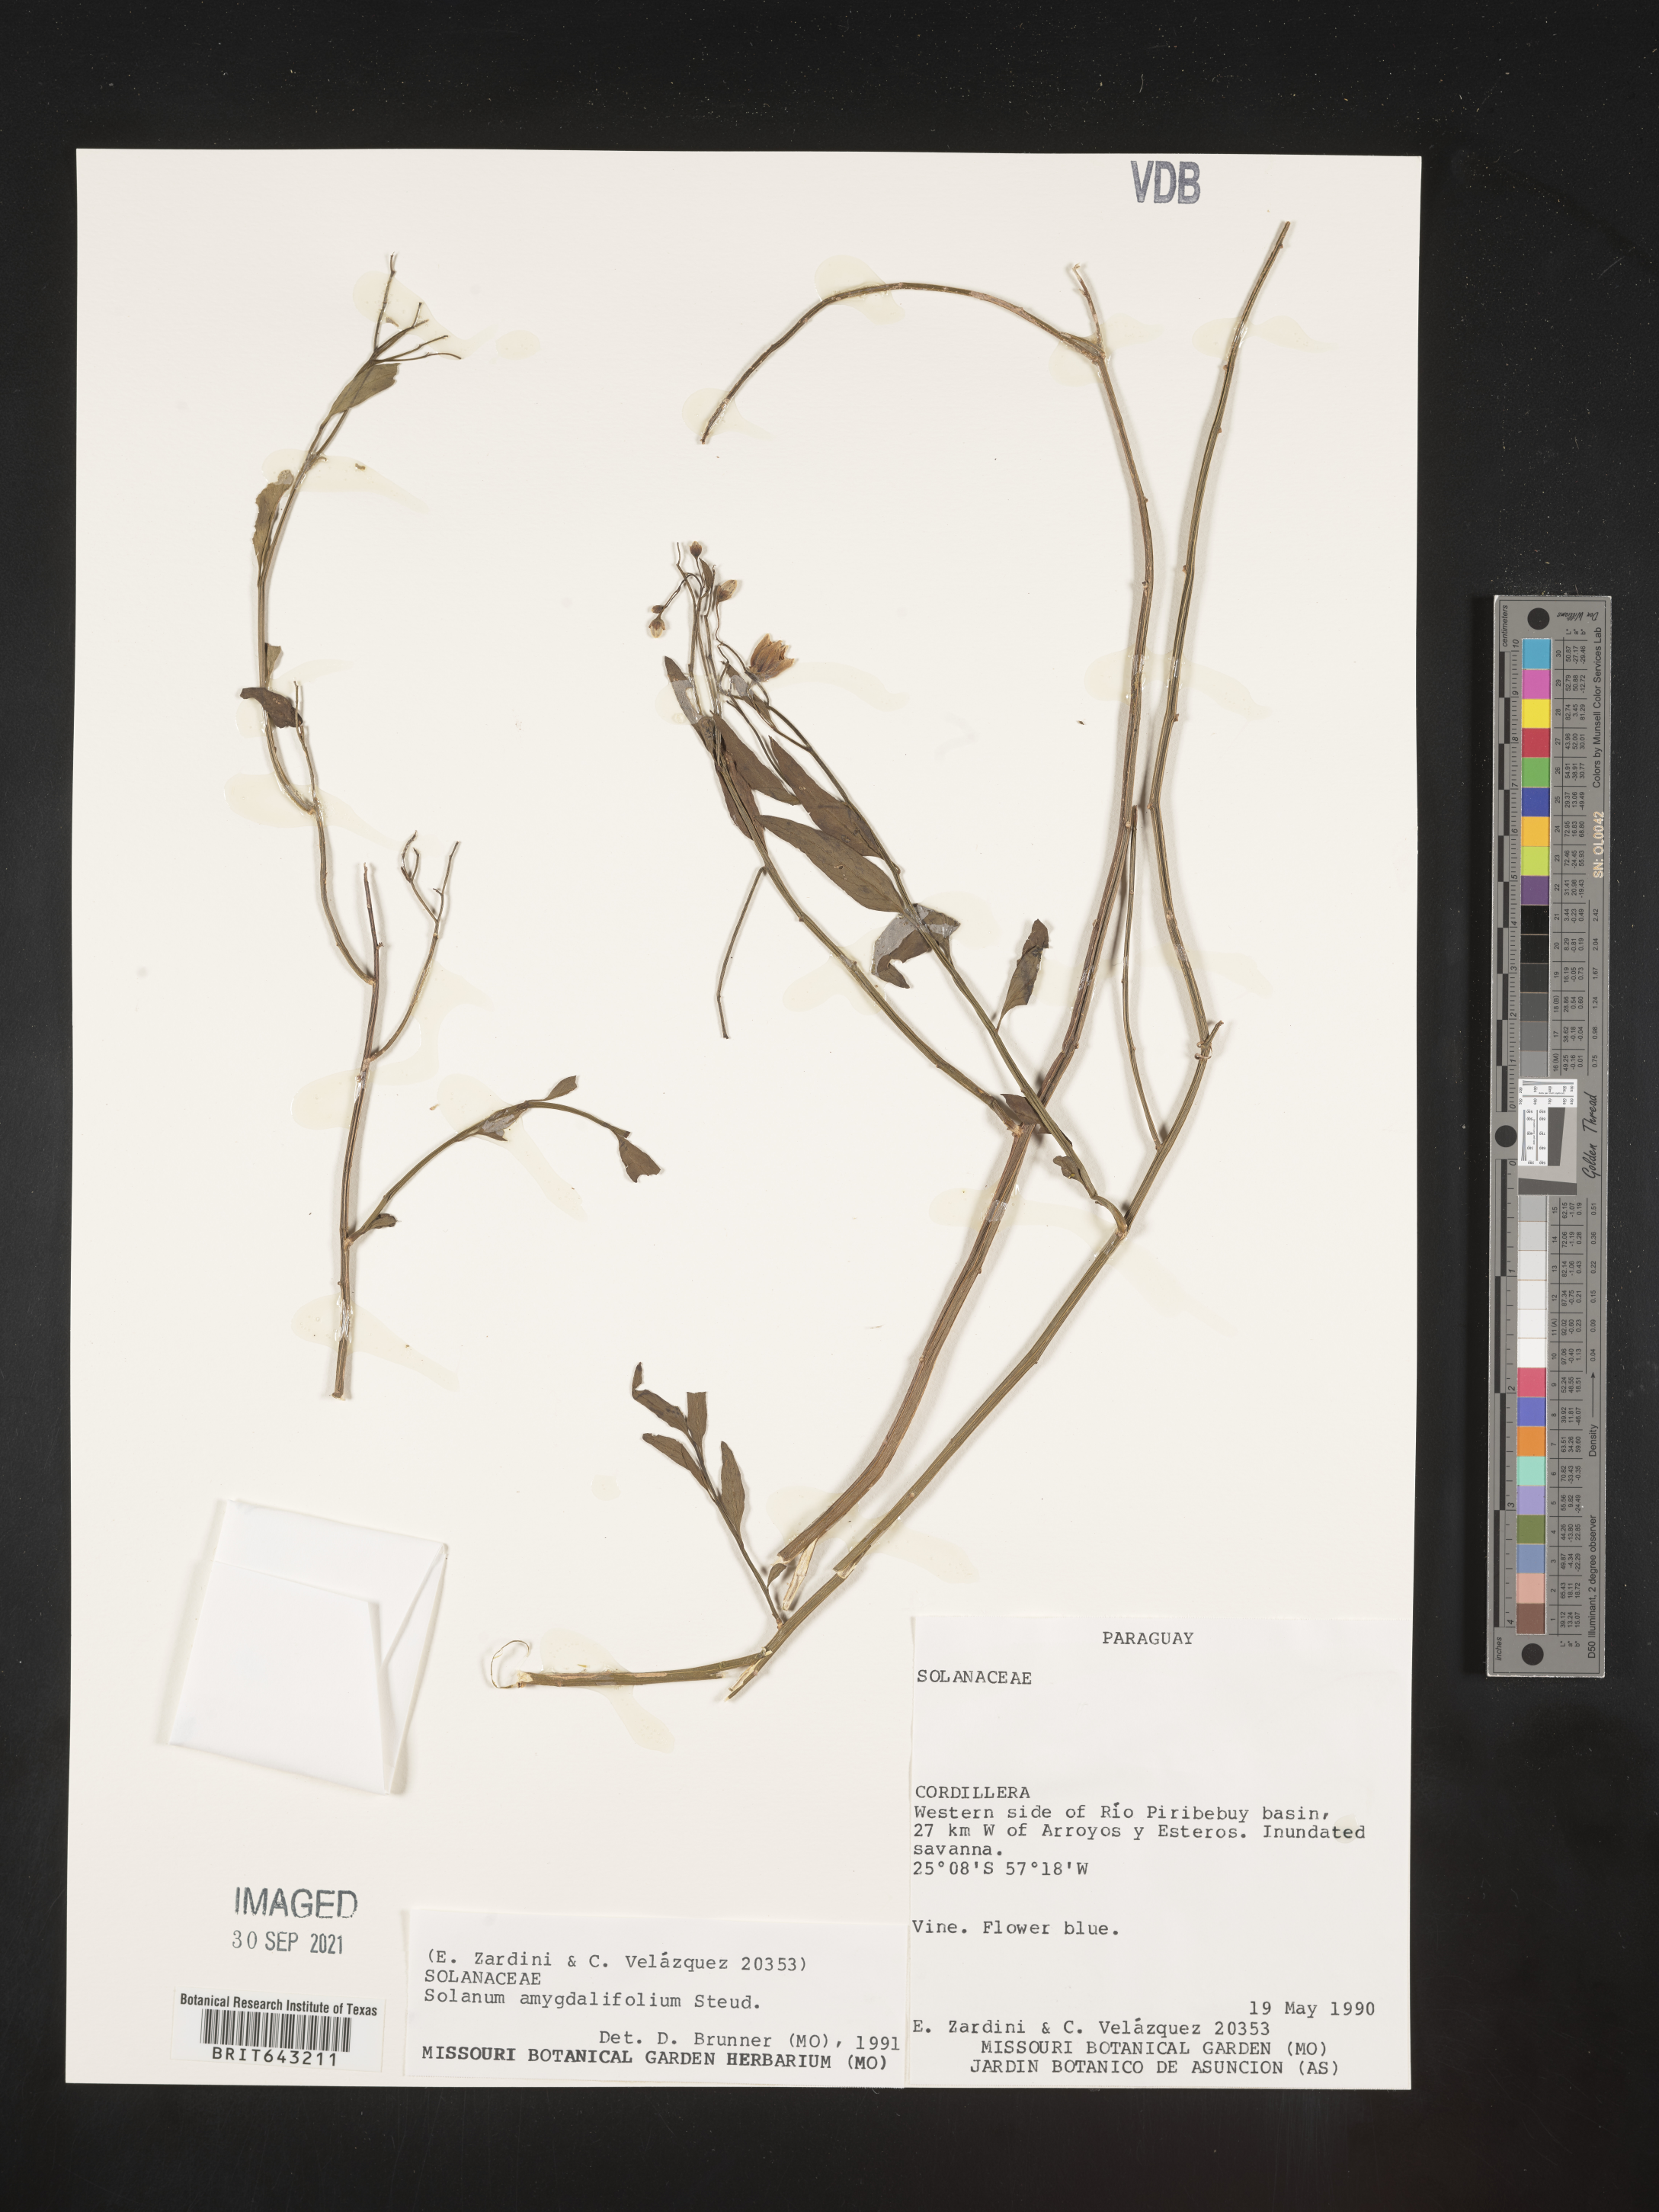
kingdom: Plantae
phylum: Tracheophyta
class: Magnoliopsida
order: Solanales
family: Solanaceae
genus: Solanum
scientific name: Solanum
